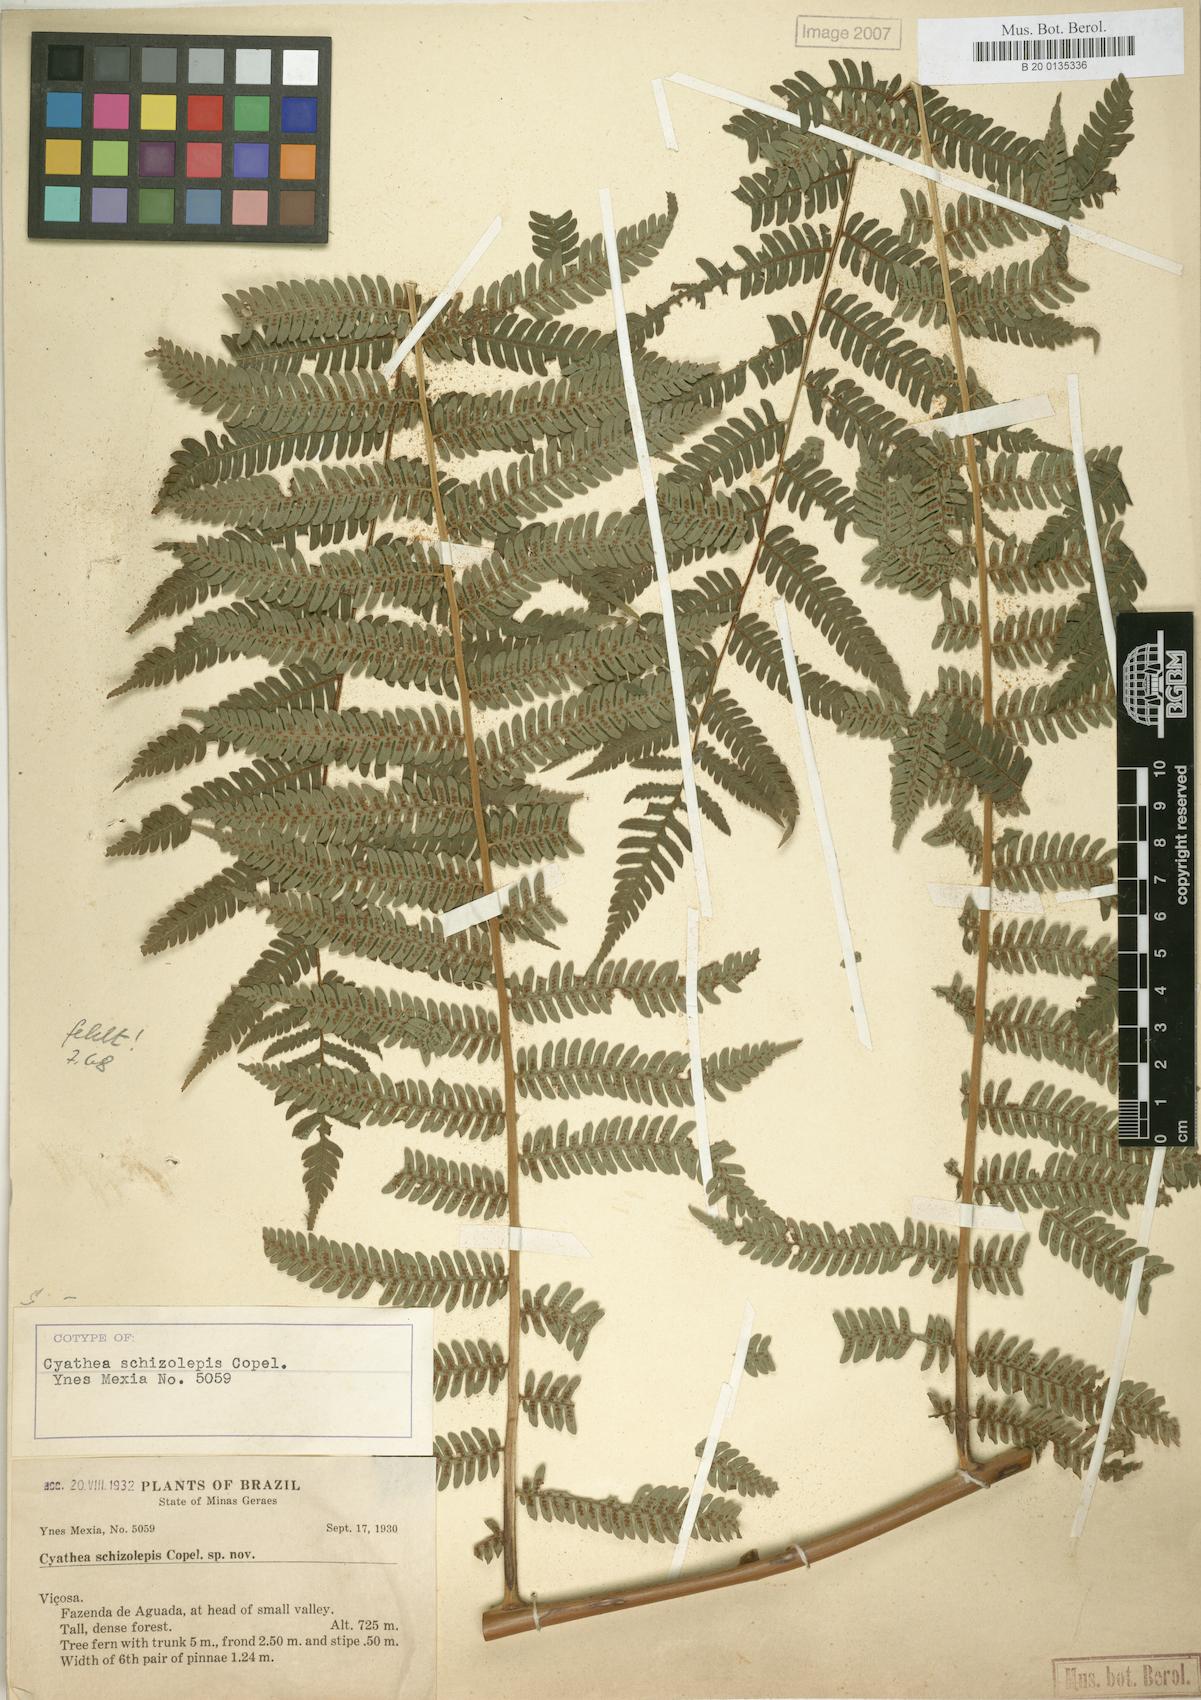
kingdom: Plantae
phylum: Tracheophyta
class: Polypodiopsida
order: Cyatheales
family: Cyatheaceae
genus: Alsophila
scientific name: Alsophila sternbergii
